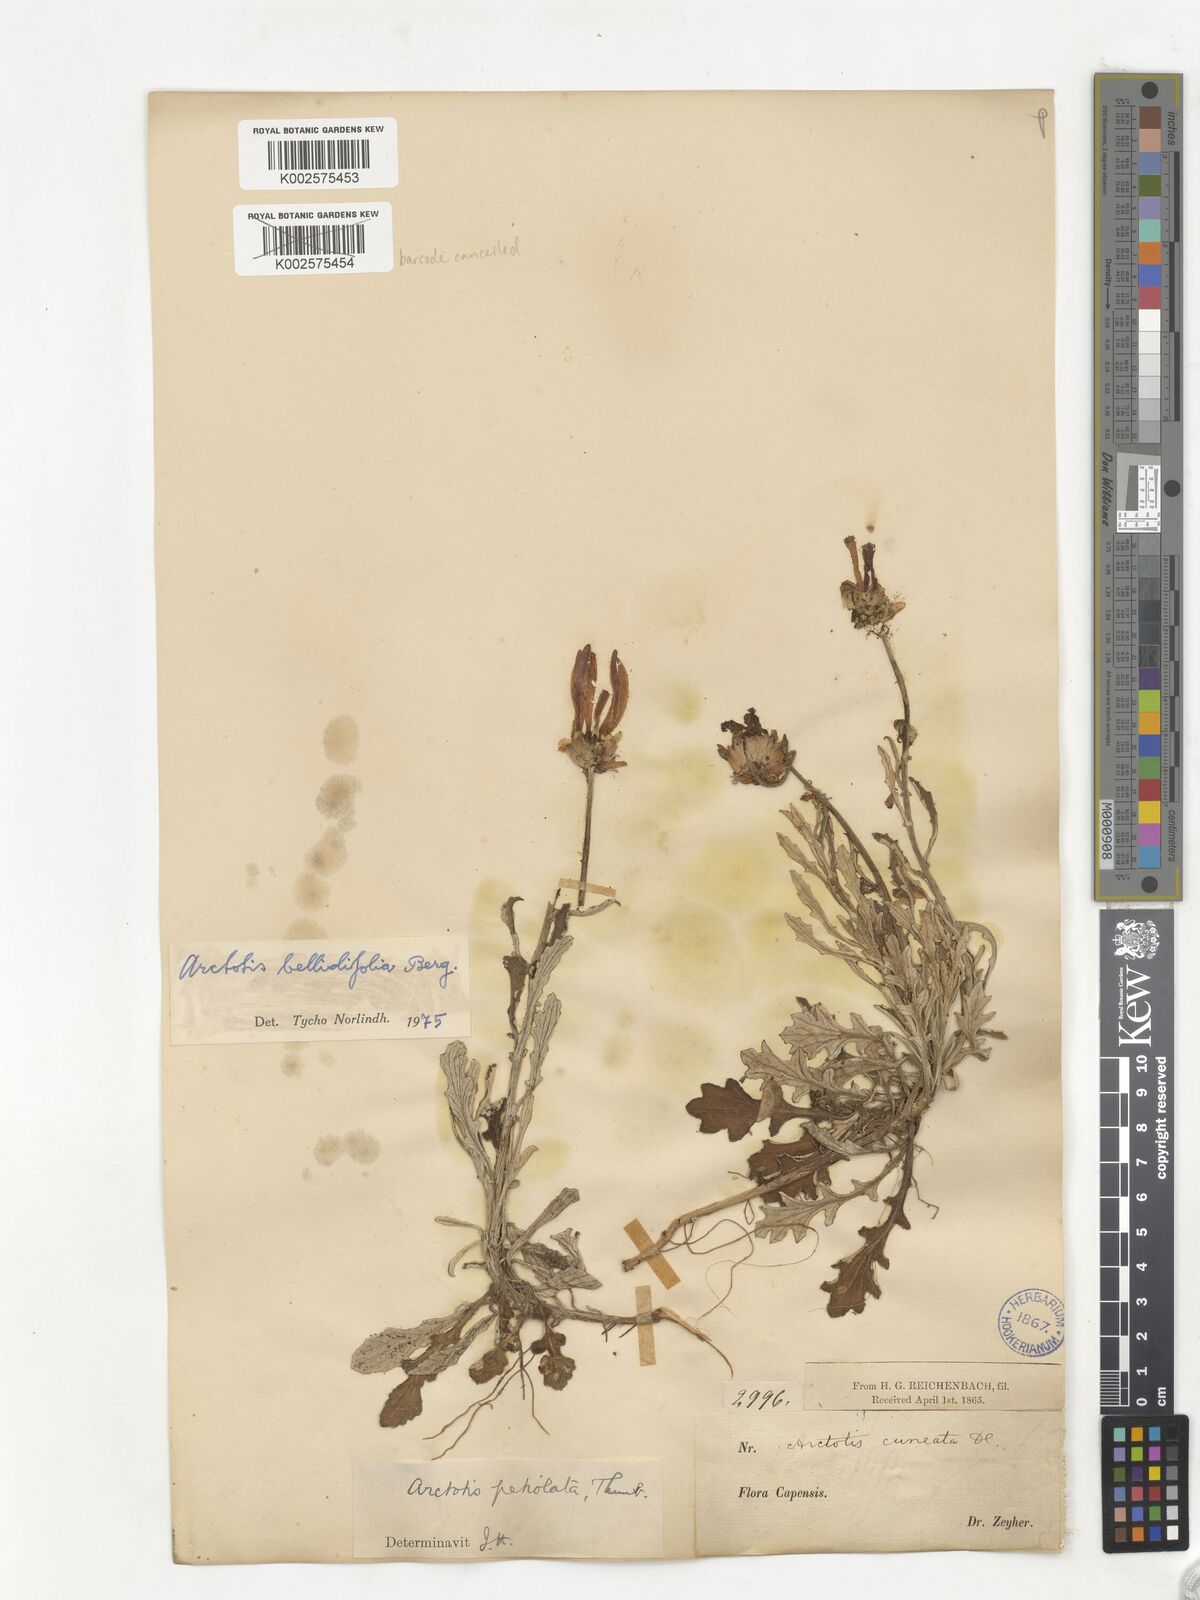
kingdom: Plantae
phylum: Tracheophyta
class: Magnoliopsida
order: Asterales
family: Asteraceae
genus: Arctotis
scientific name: Arctotis bellidifolia
